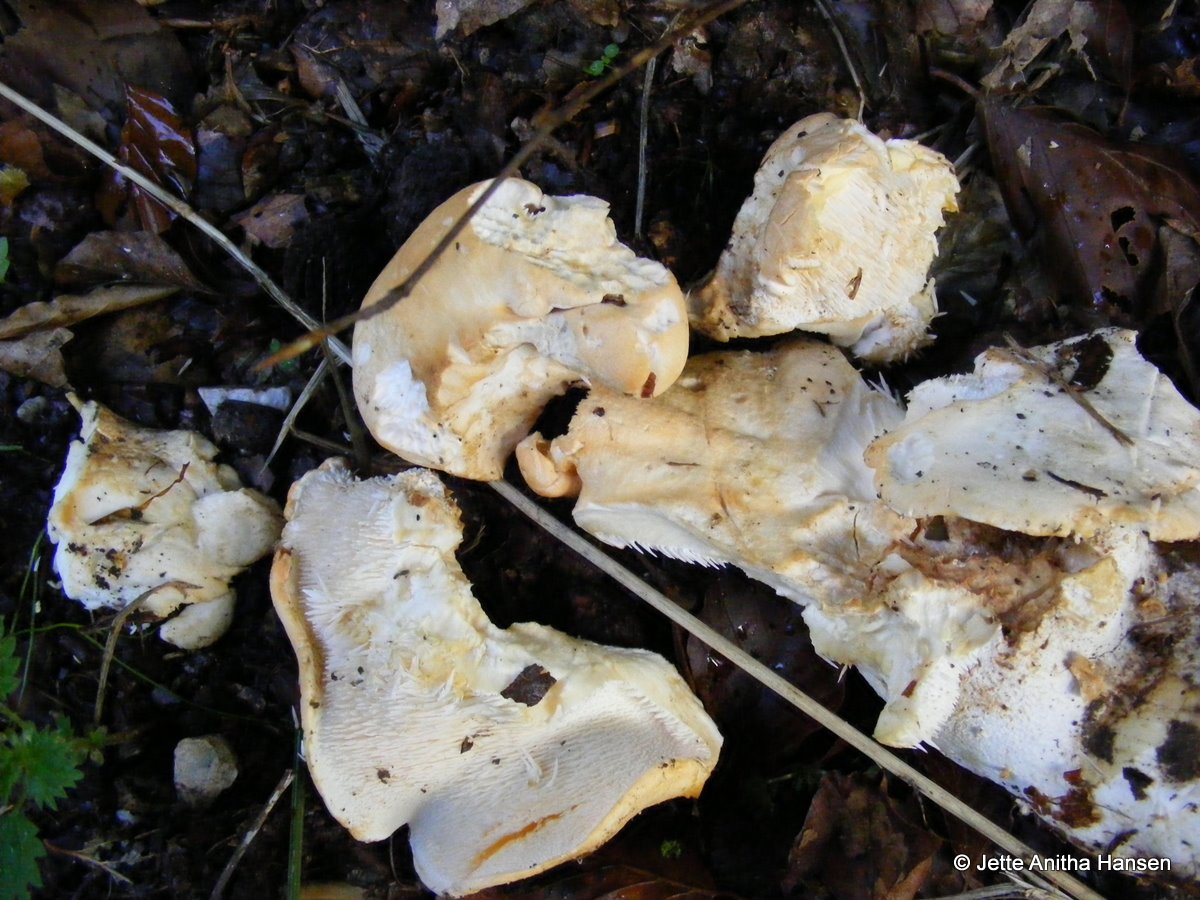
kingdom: Fungi
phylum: Basidiomycota
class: Agaricomycetes
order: Cantharellales
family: Hydnaceae
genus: Hydnum
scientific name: Hydnum repandum
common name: almindelig pigsvamp
